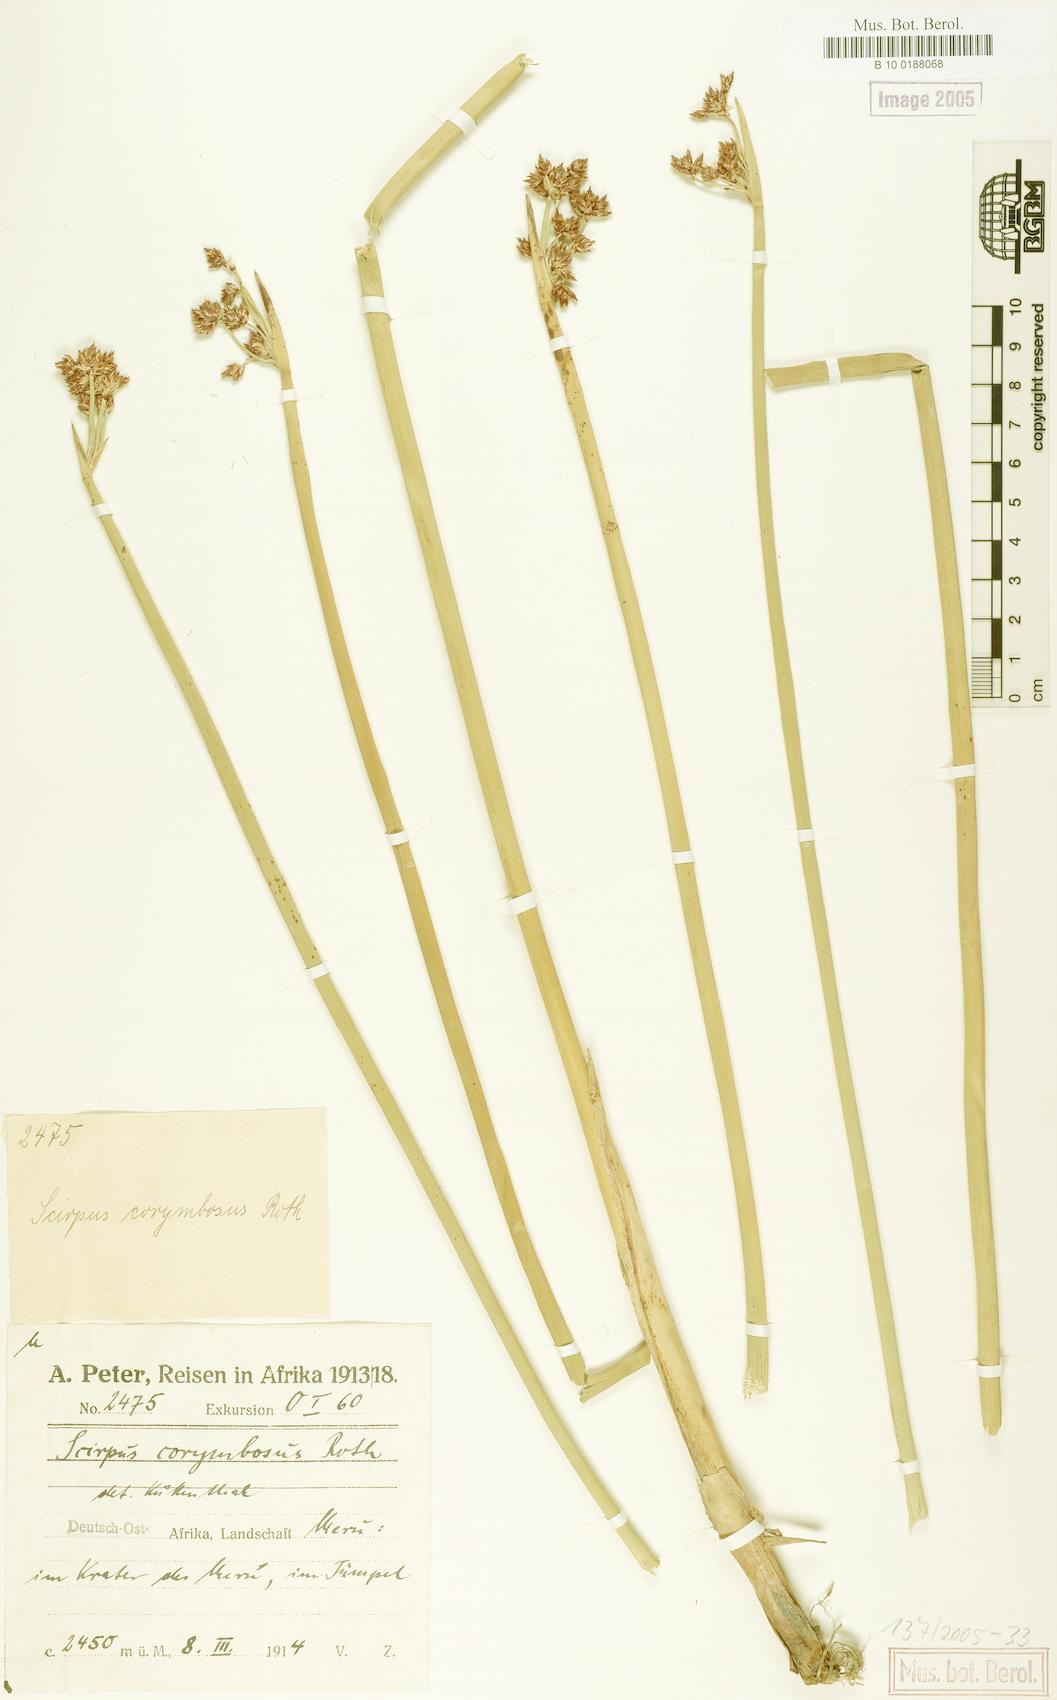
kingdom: Plantae
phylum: Tracheophyta
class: Liliopsida
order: Poales
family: Cyperaceae
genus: Schoenoplectiella
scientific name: Schoenoplectiella brachyceras
